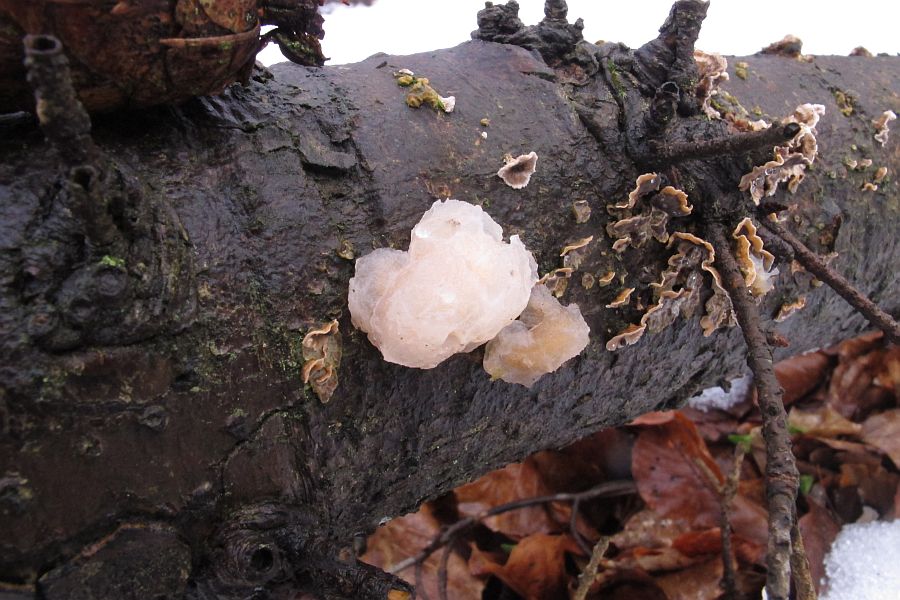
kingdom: Fungi
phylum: Basidiomycota
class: Tremellomycetes
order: Tremellales
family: Naemateliaceae
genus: Naematelia
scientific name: Naematelia encephala
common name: fyrre-bævresvamp
